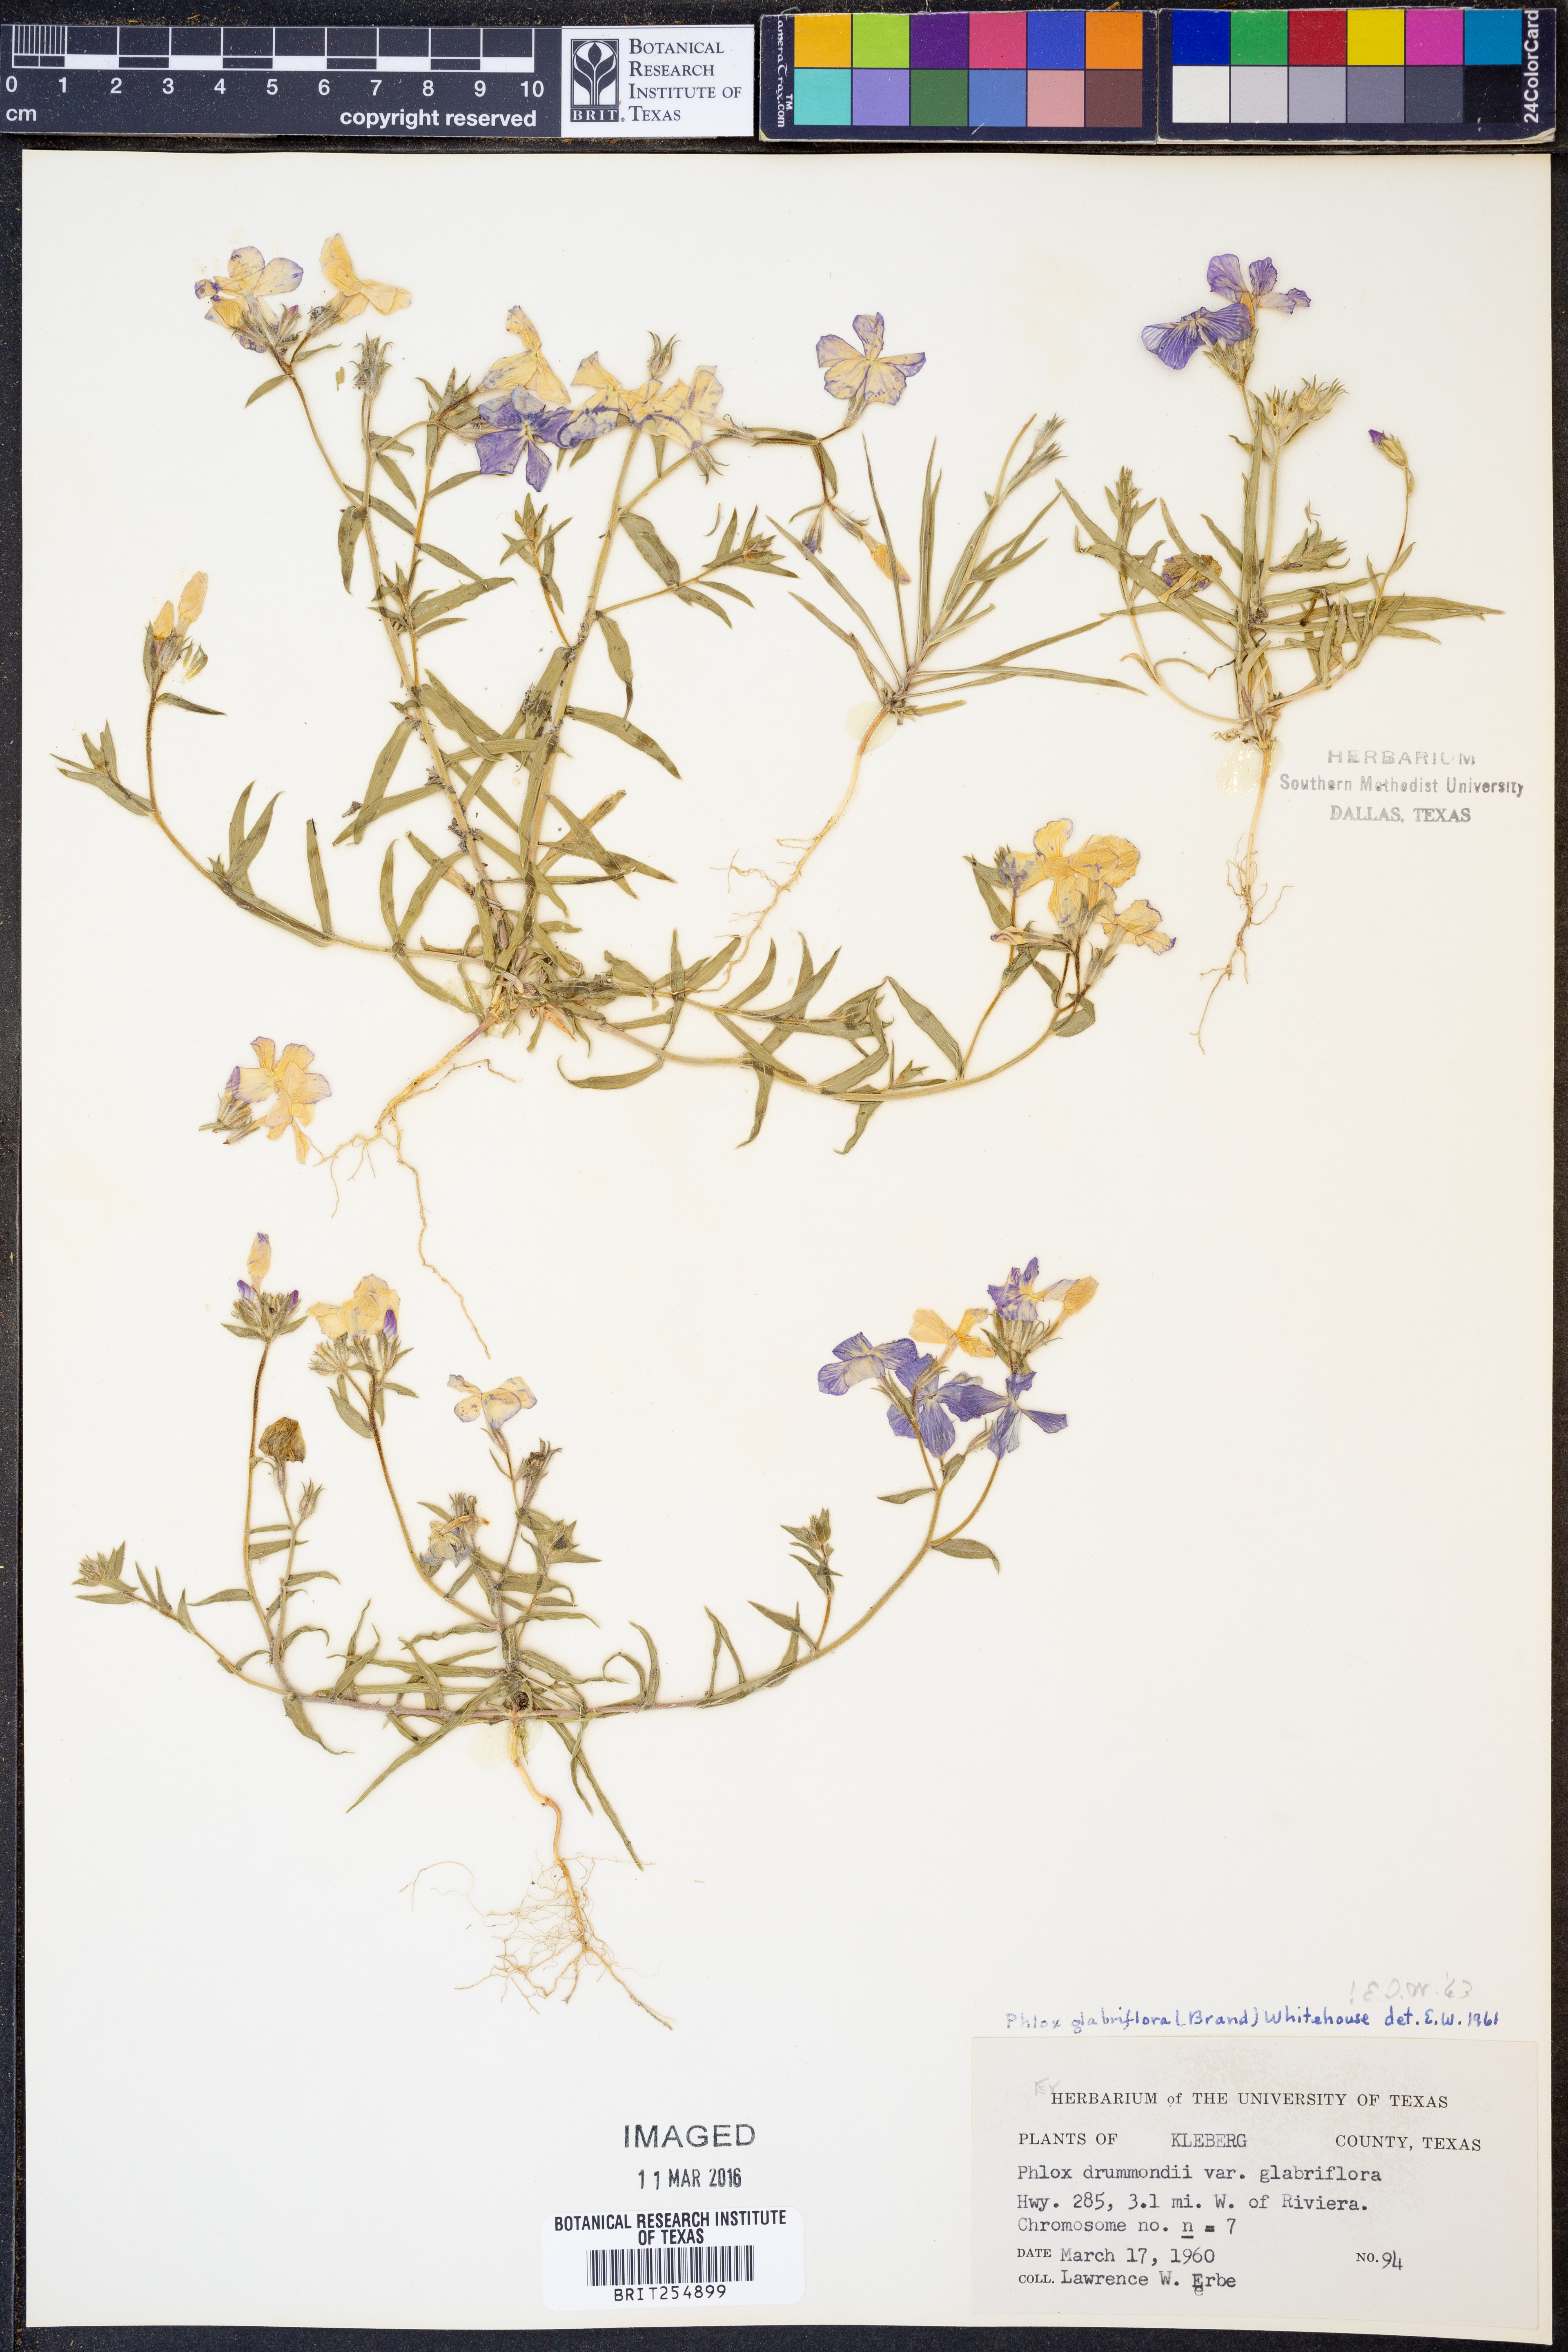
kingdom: Plantae
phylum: Tracheophyta
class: Magnoliopsida
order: Ericales
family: Polemoniaceae
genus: Phlox
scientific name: Phlox glabriflora
